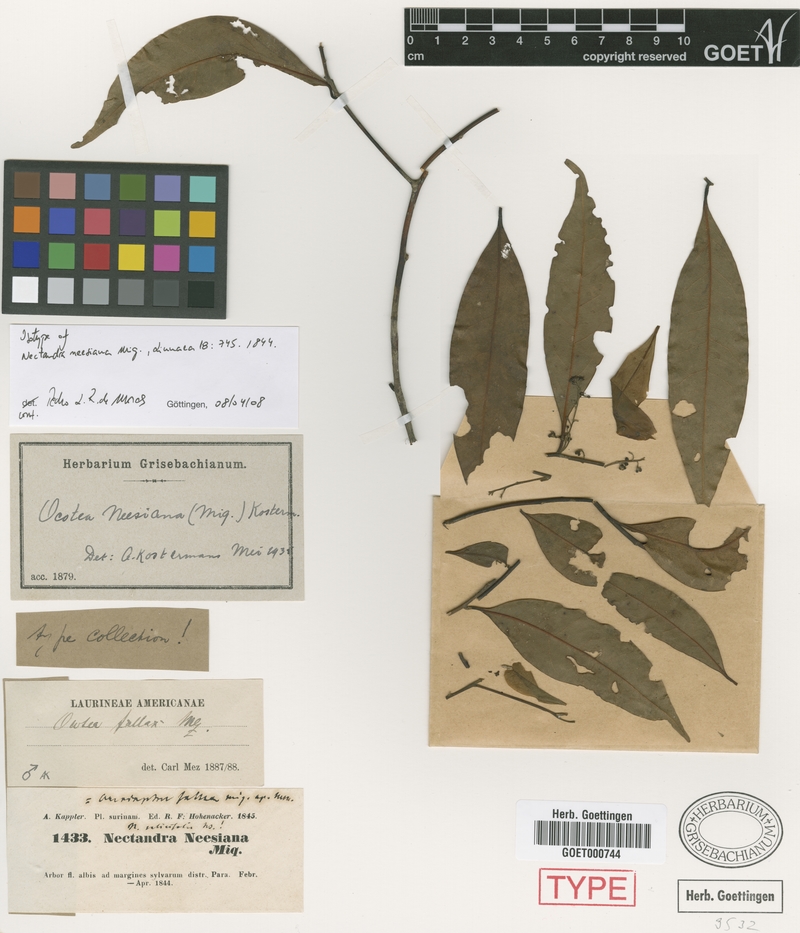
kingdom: Plantae
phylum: Tracheophyta
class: Magnoliopsida
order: Laurales
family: Lauraceae
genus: Ocotea
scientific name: Ocotea neesiana
